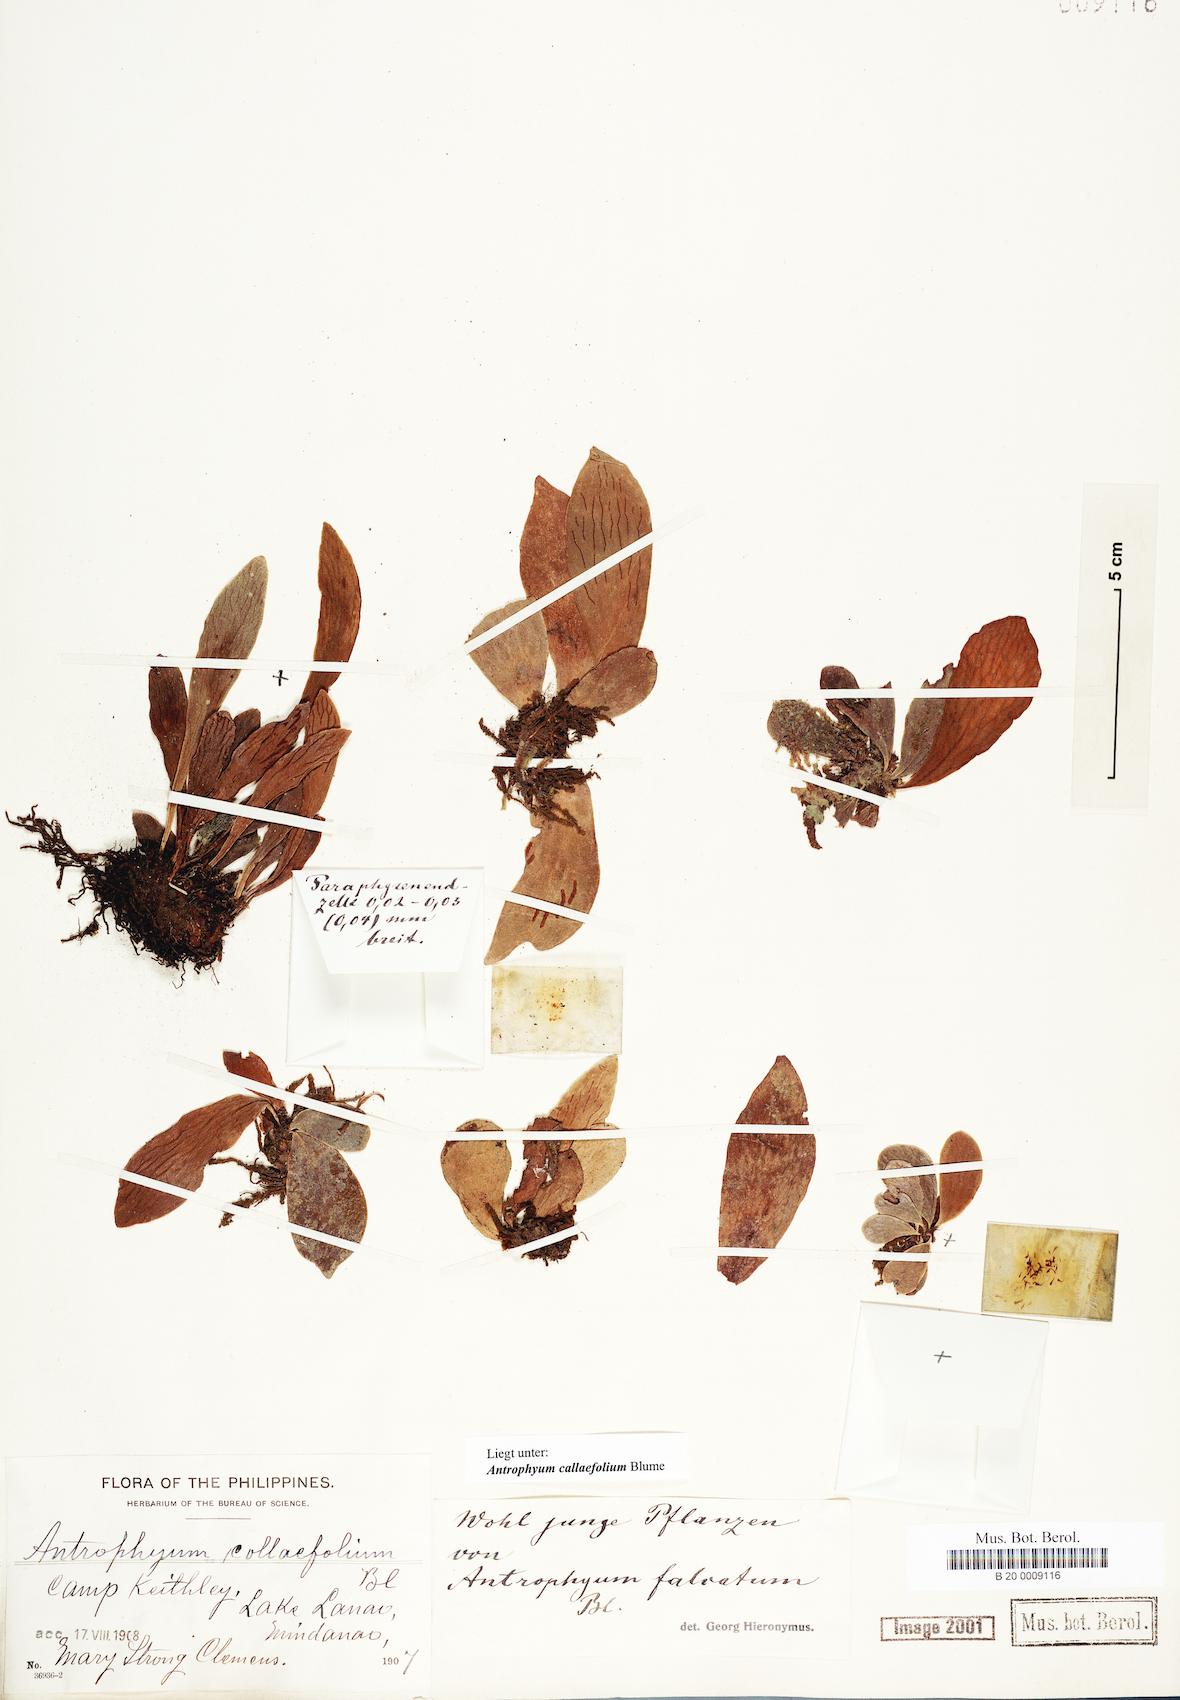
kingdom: Plantae
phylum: Tracheophyta
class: Polypodiopsida
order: Polypodiales
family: Pteridaceae
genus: Antrophyum
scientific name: Antrophyum callifolium
